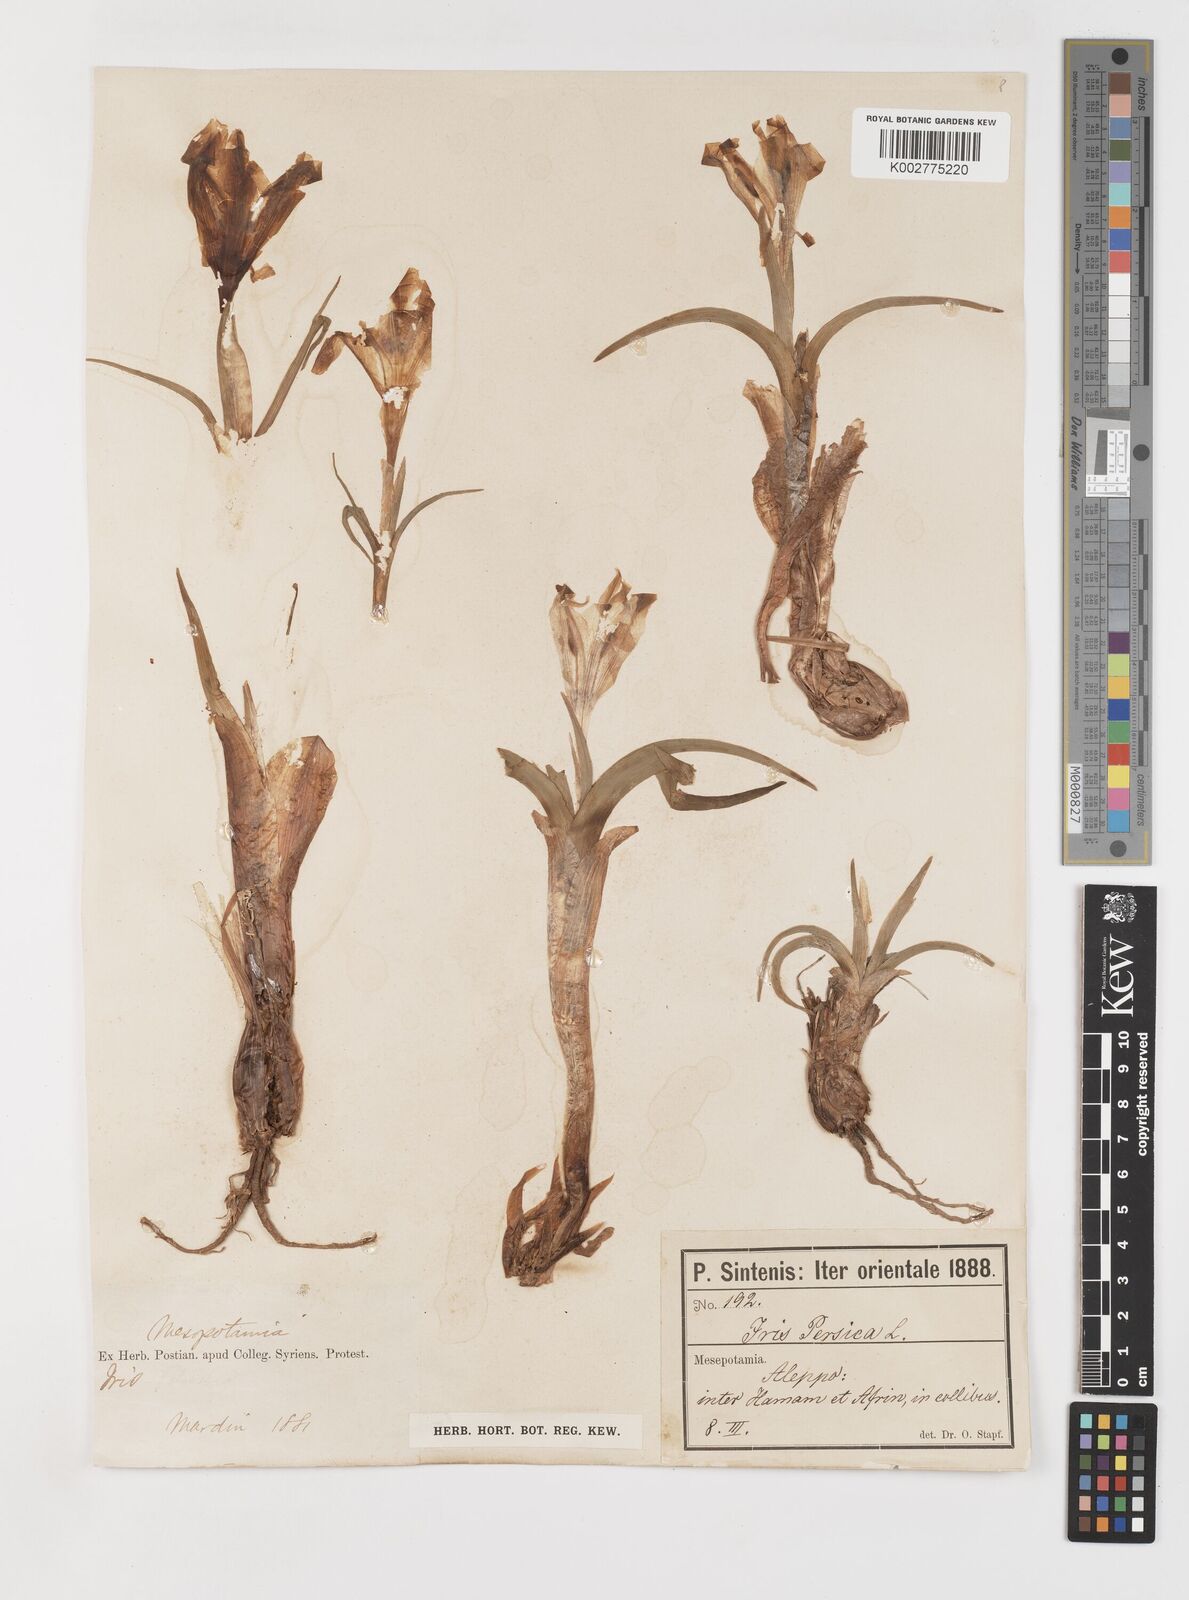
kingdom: Plantae
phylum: Tracheophyta
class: Liliopsida
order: Asparagales
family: Iridaceae
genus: Iris
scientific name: Iris persica
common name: Persian iris
